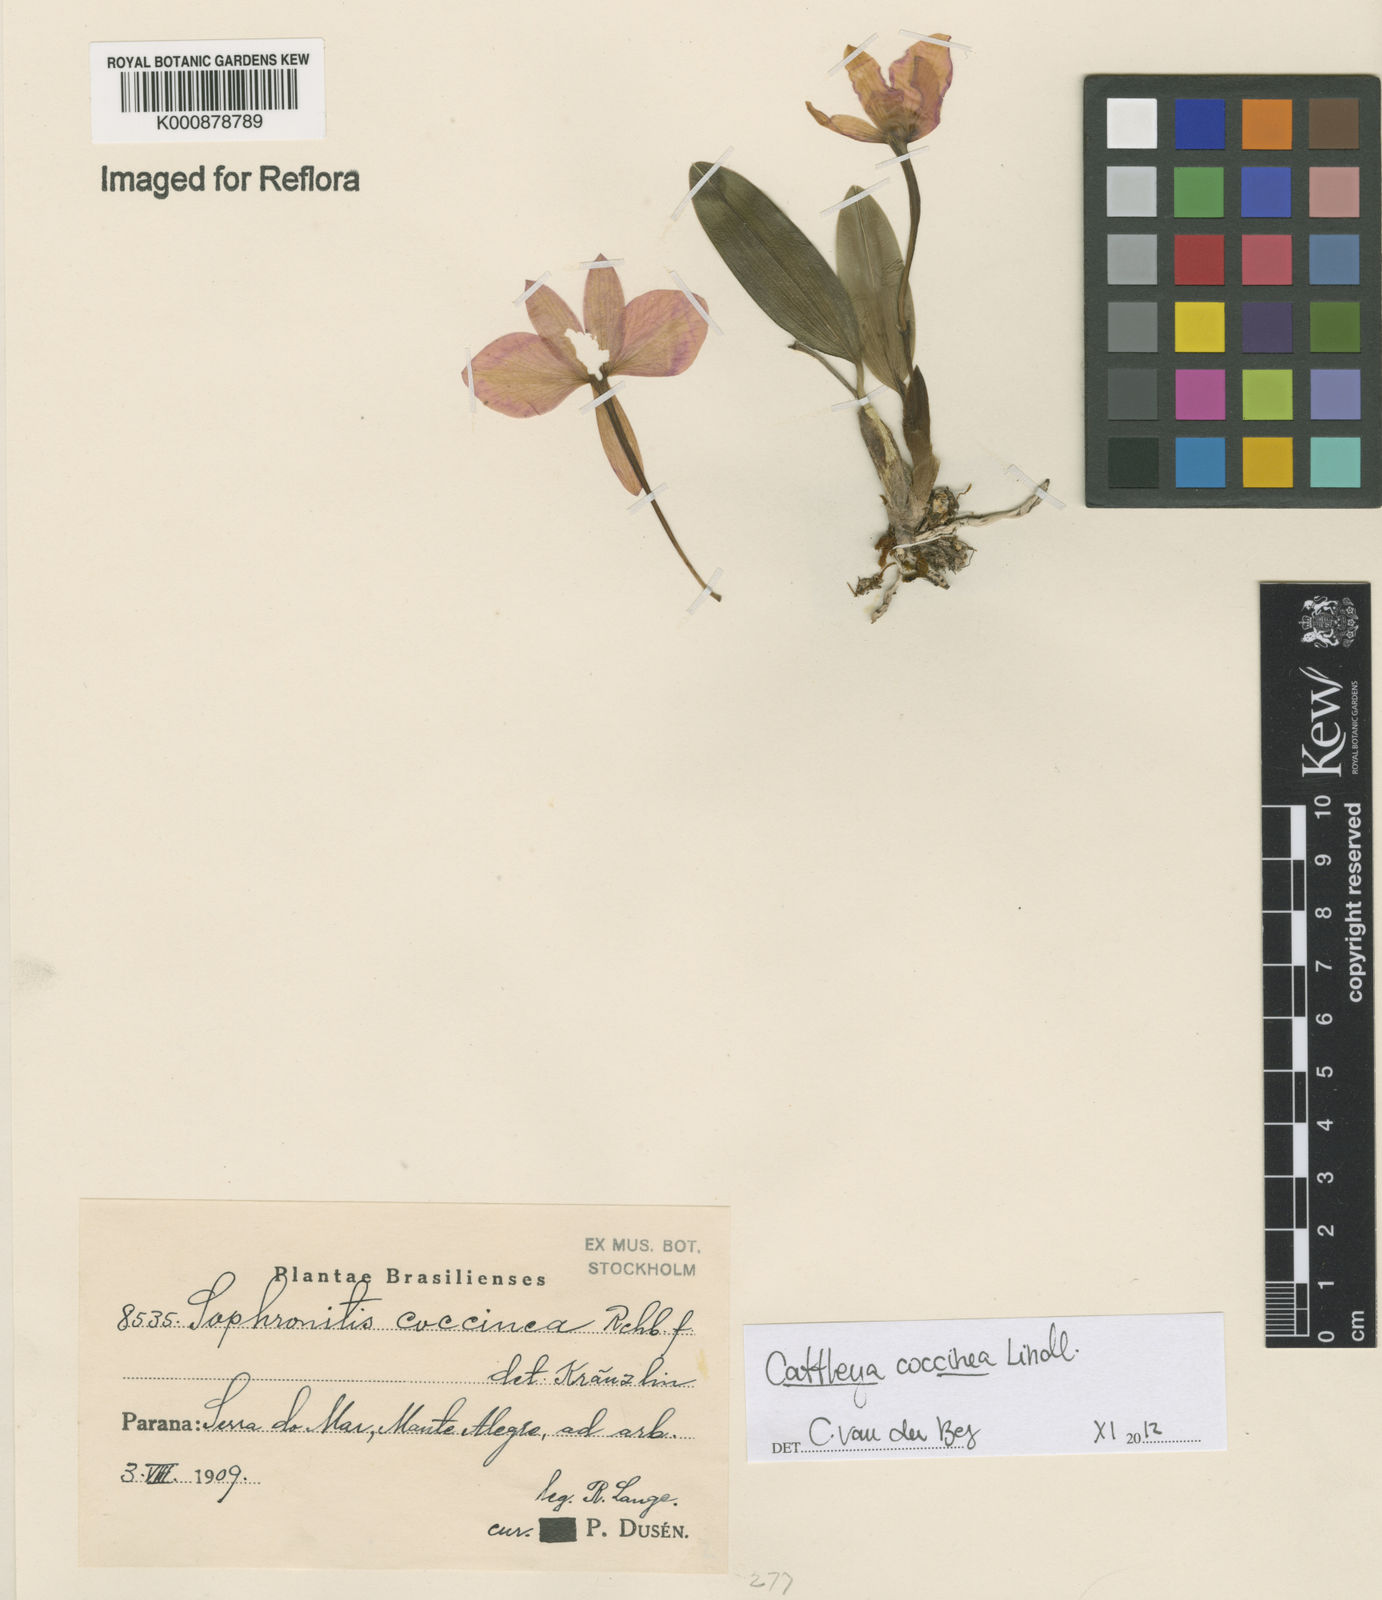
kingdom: Plantae
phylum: Tracheophyta
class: Liliopsida
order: Asparagales
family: Orchidaceae
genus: Cattleya
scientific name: Cattleya coccinea
